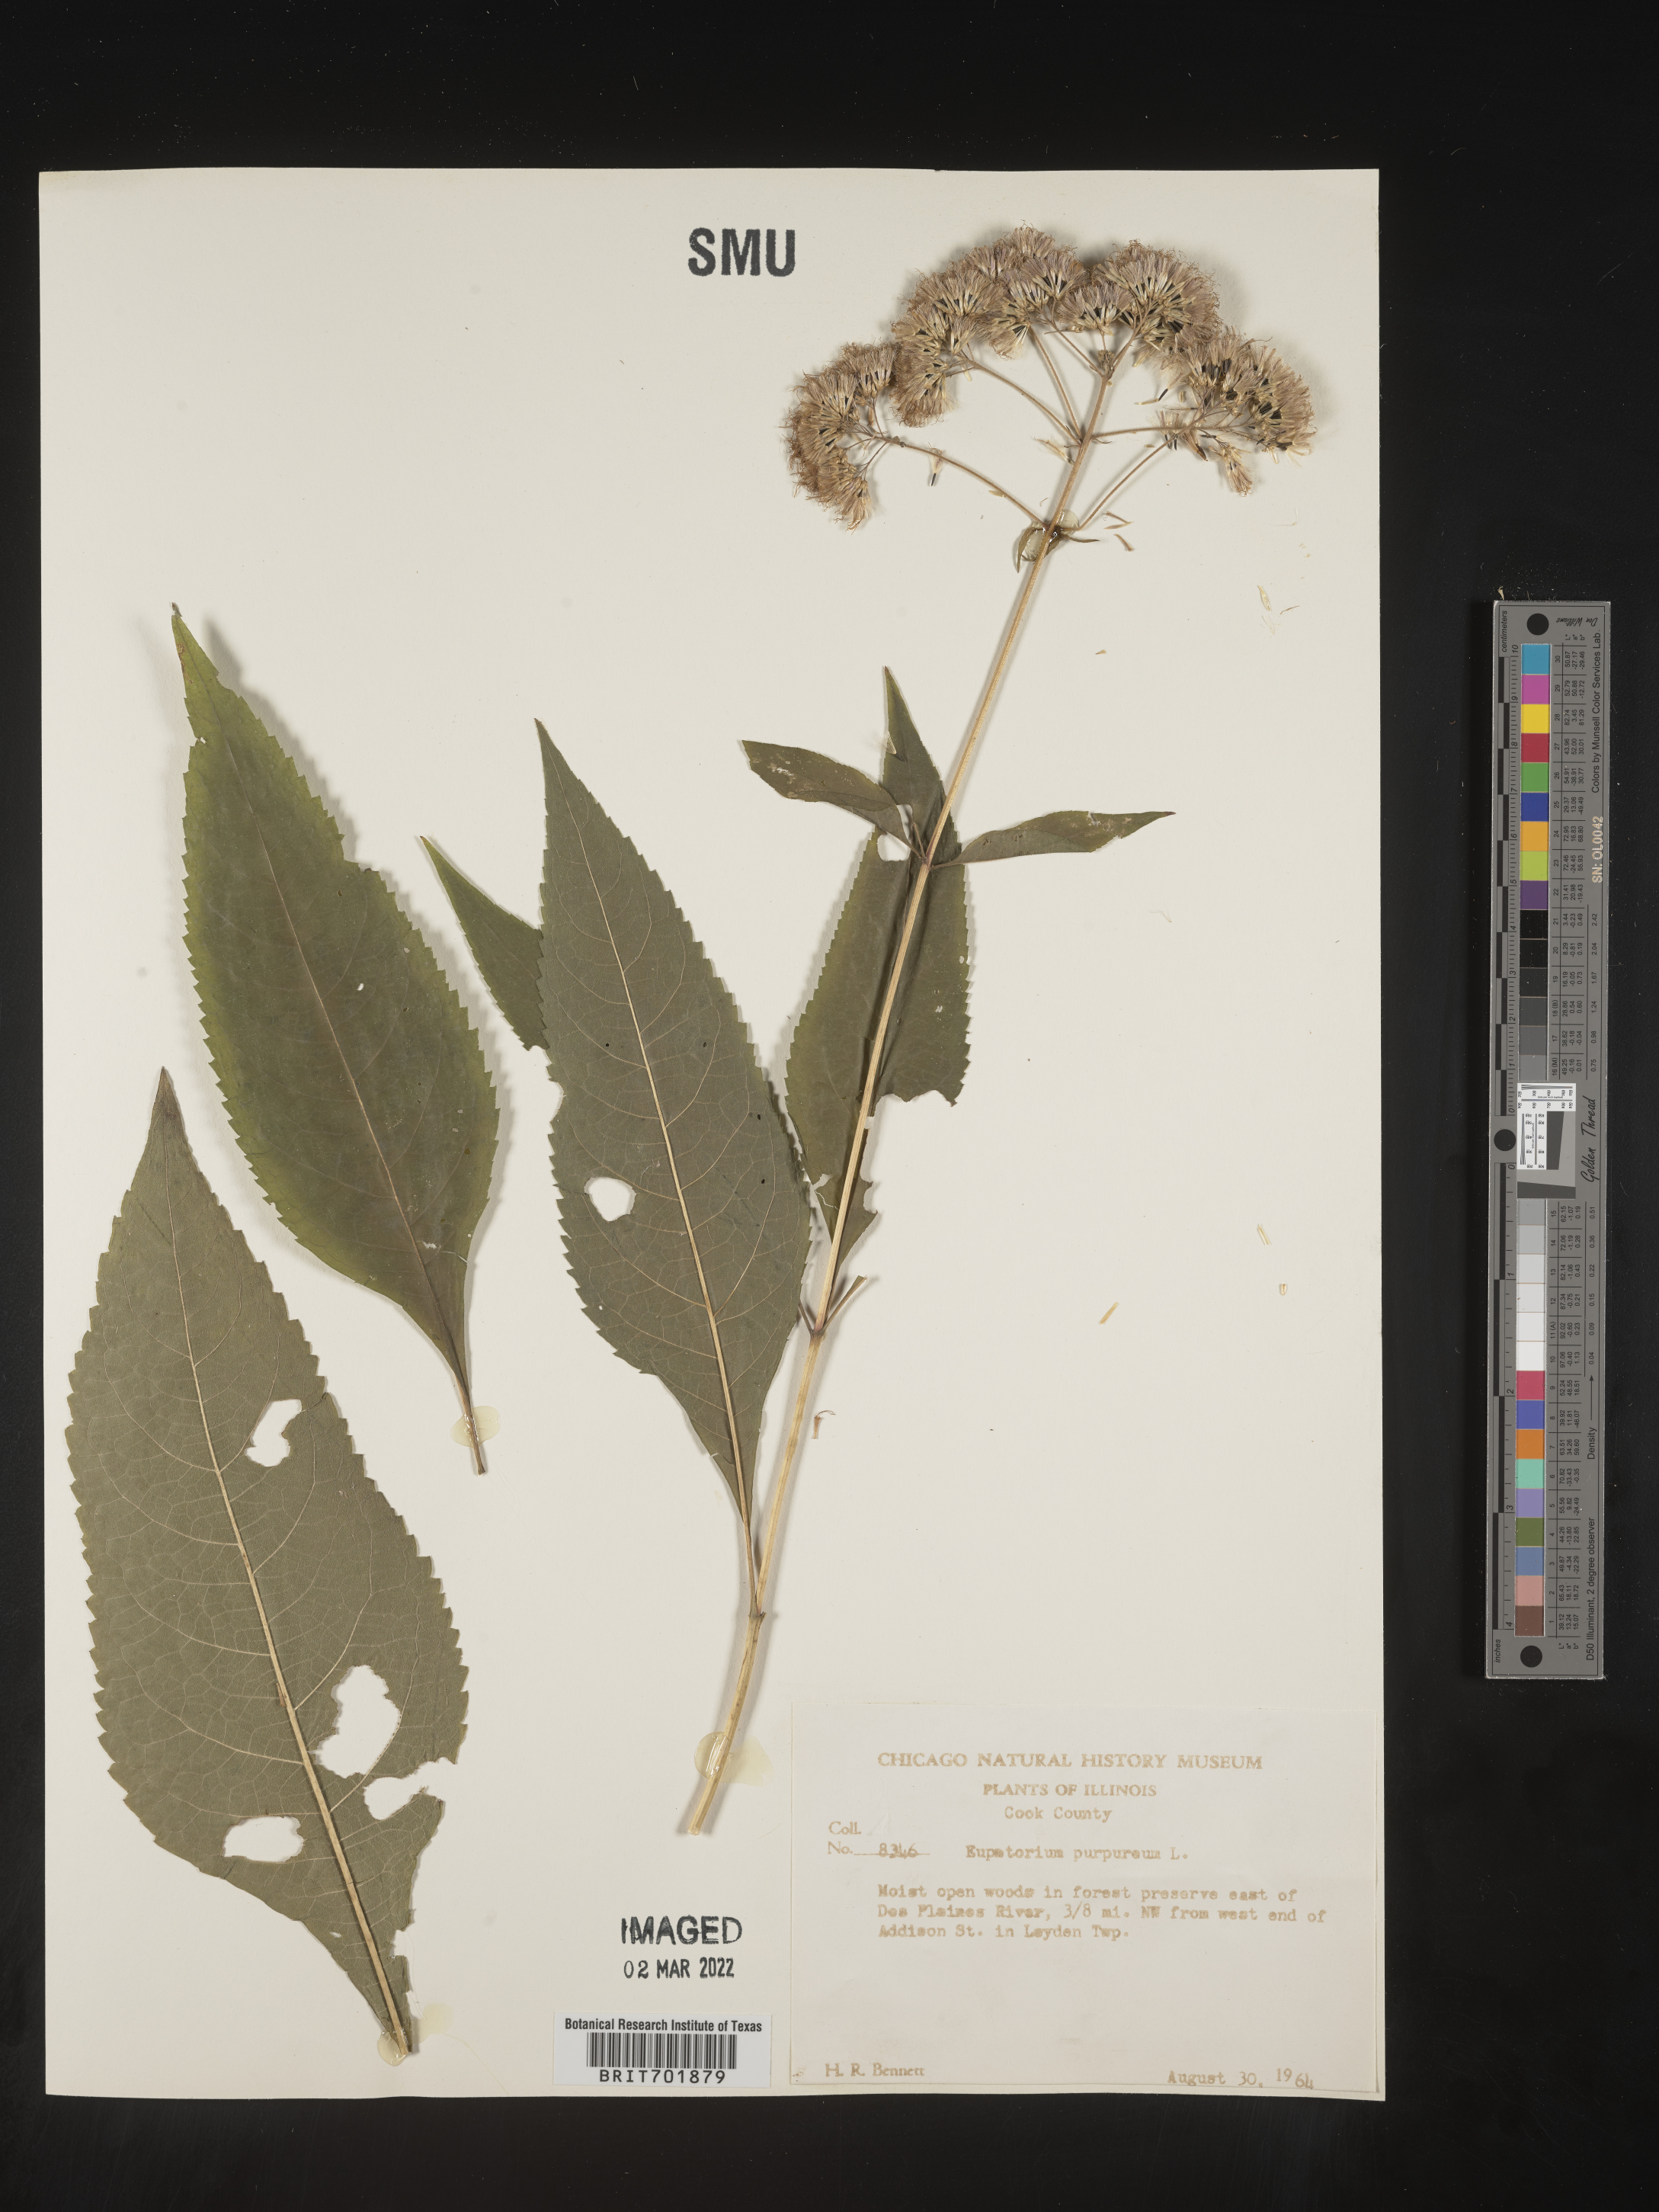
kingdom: Plantae
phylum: Tracheophyta
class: Magnoliopsida
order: Asterales
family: Asteraceae
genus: Eupatorium
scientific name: Eupatorium quaternum
